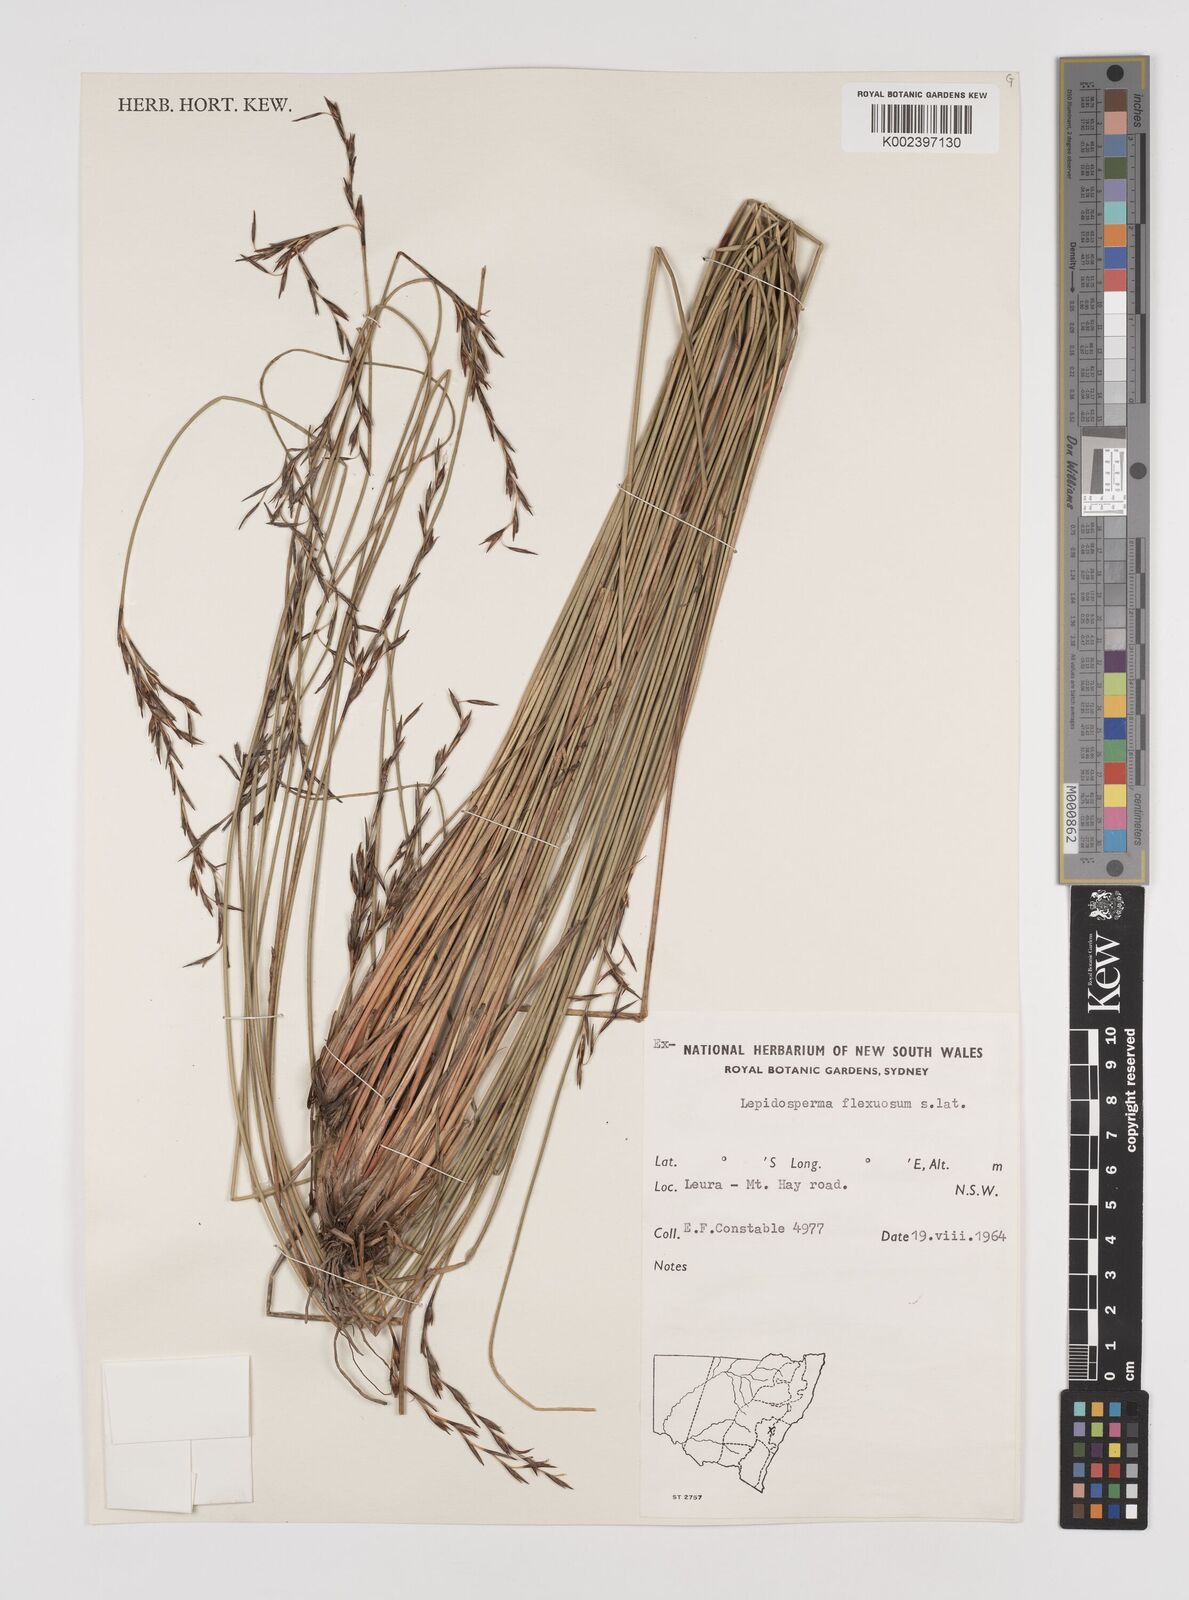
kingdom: Plantae
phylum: Tracheophyta
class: Liliopsida
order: Poales
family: Cyperaceae
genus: Lepidosperma
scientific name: Lepidosperma flexuosum
